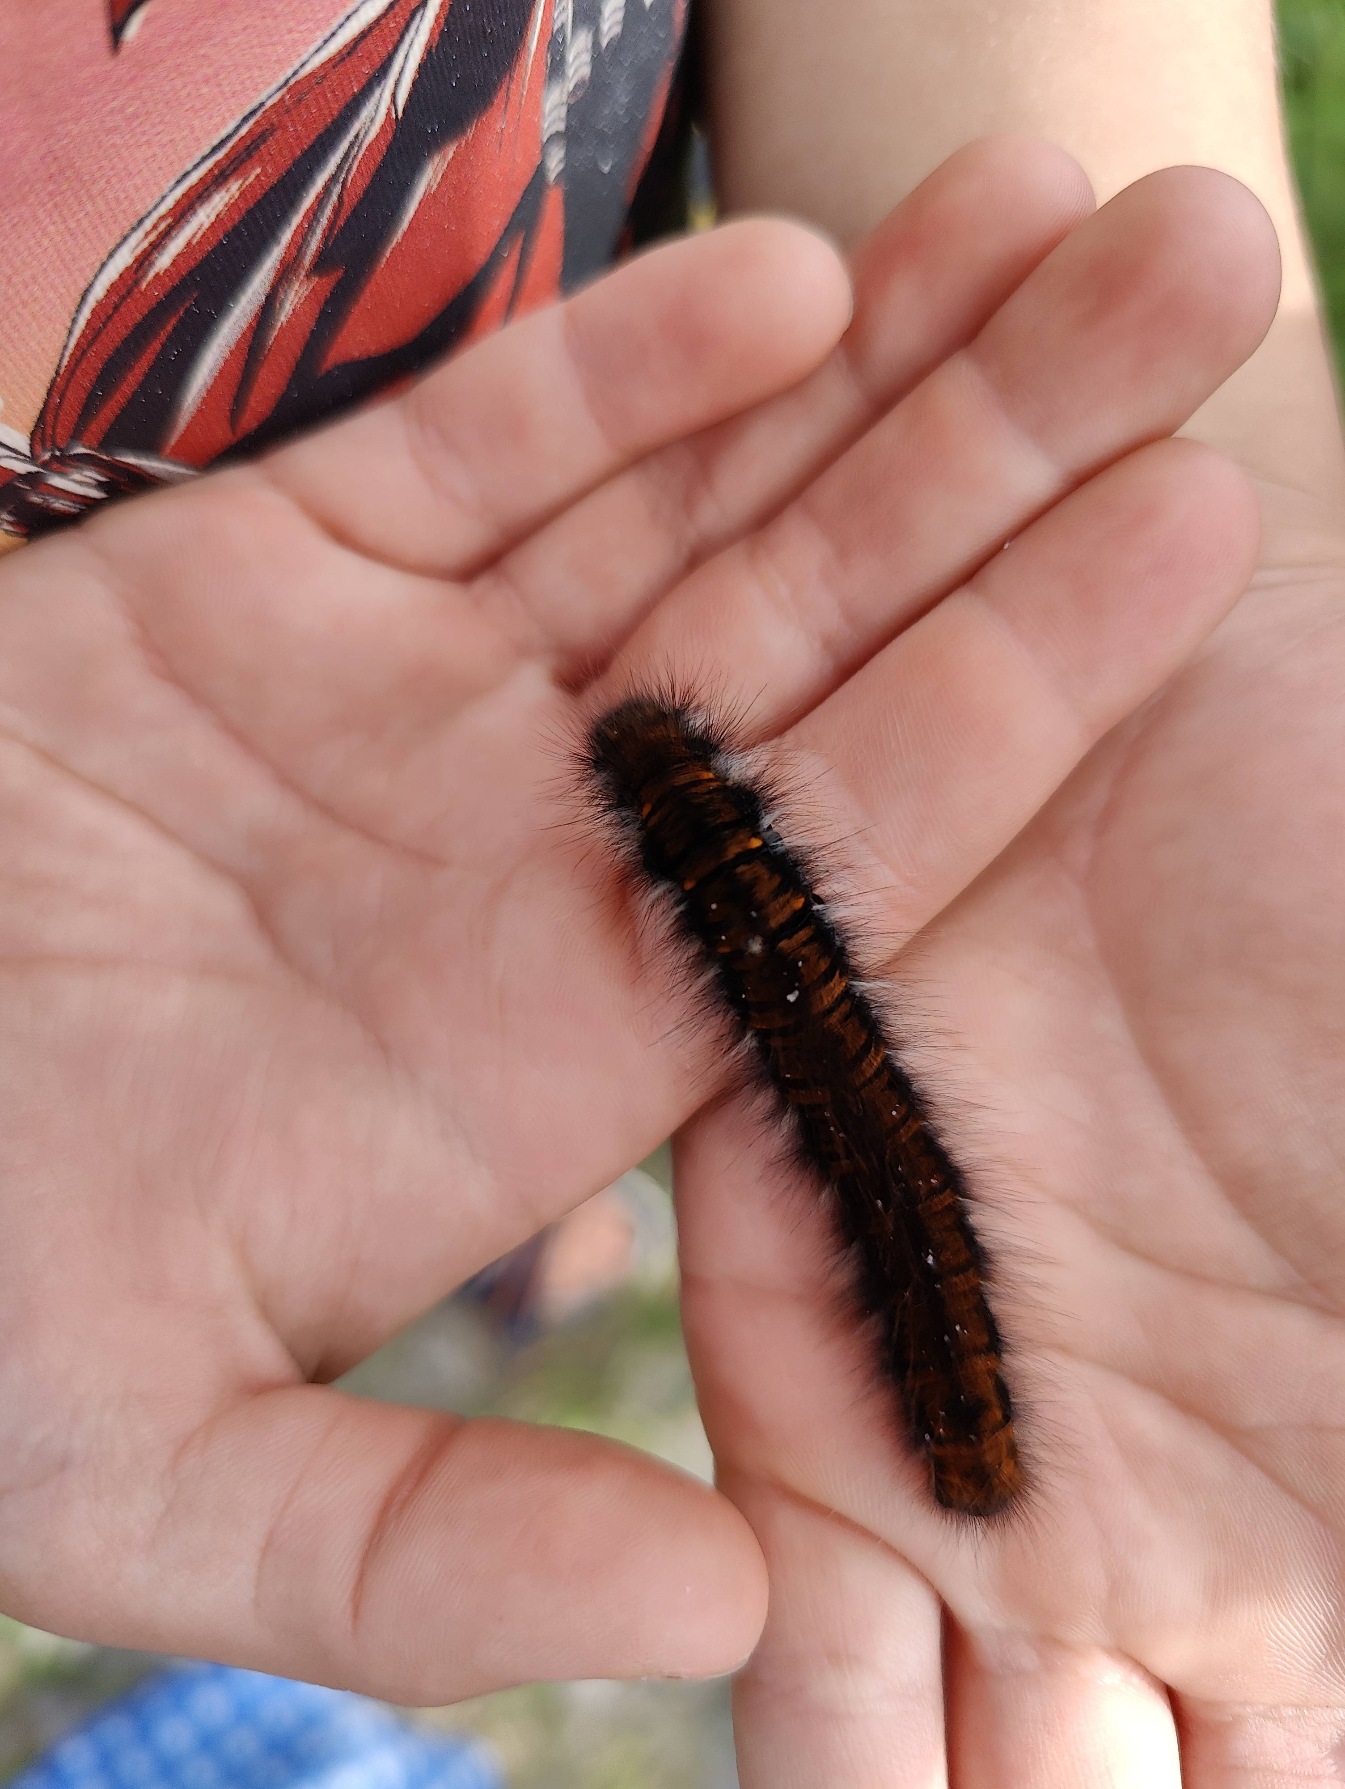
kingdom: Animalia
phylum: Arthropoda
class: Insecta
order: Lepidoptera
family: Lasiocampidae
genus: Macrothylacia
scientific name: Macrothylacia rubi
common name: Brombærspinder
